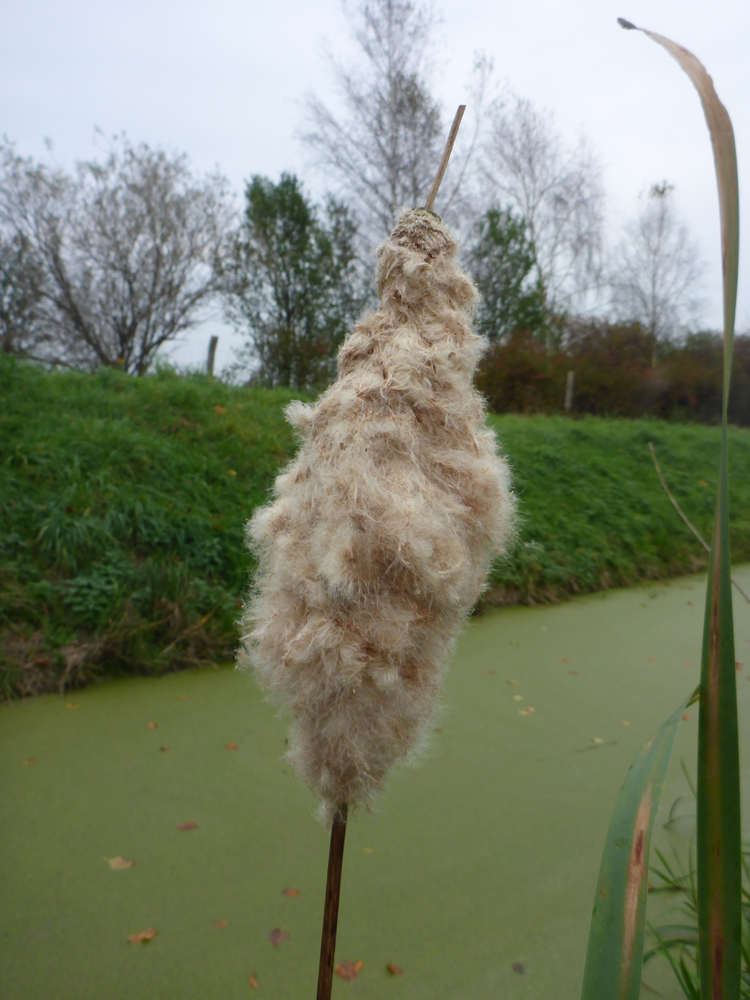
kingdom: Plantae
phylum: Tracheophyta
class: Liliopsida
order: Poales
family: Typhaceae
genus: Typha
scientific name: Typha latifolia
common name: Broadleaf cattail
